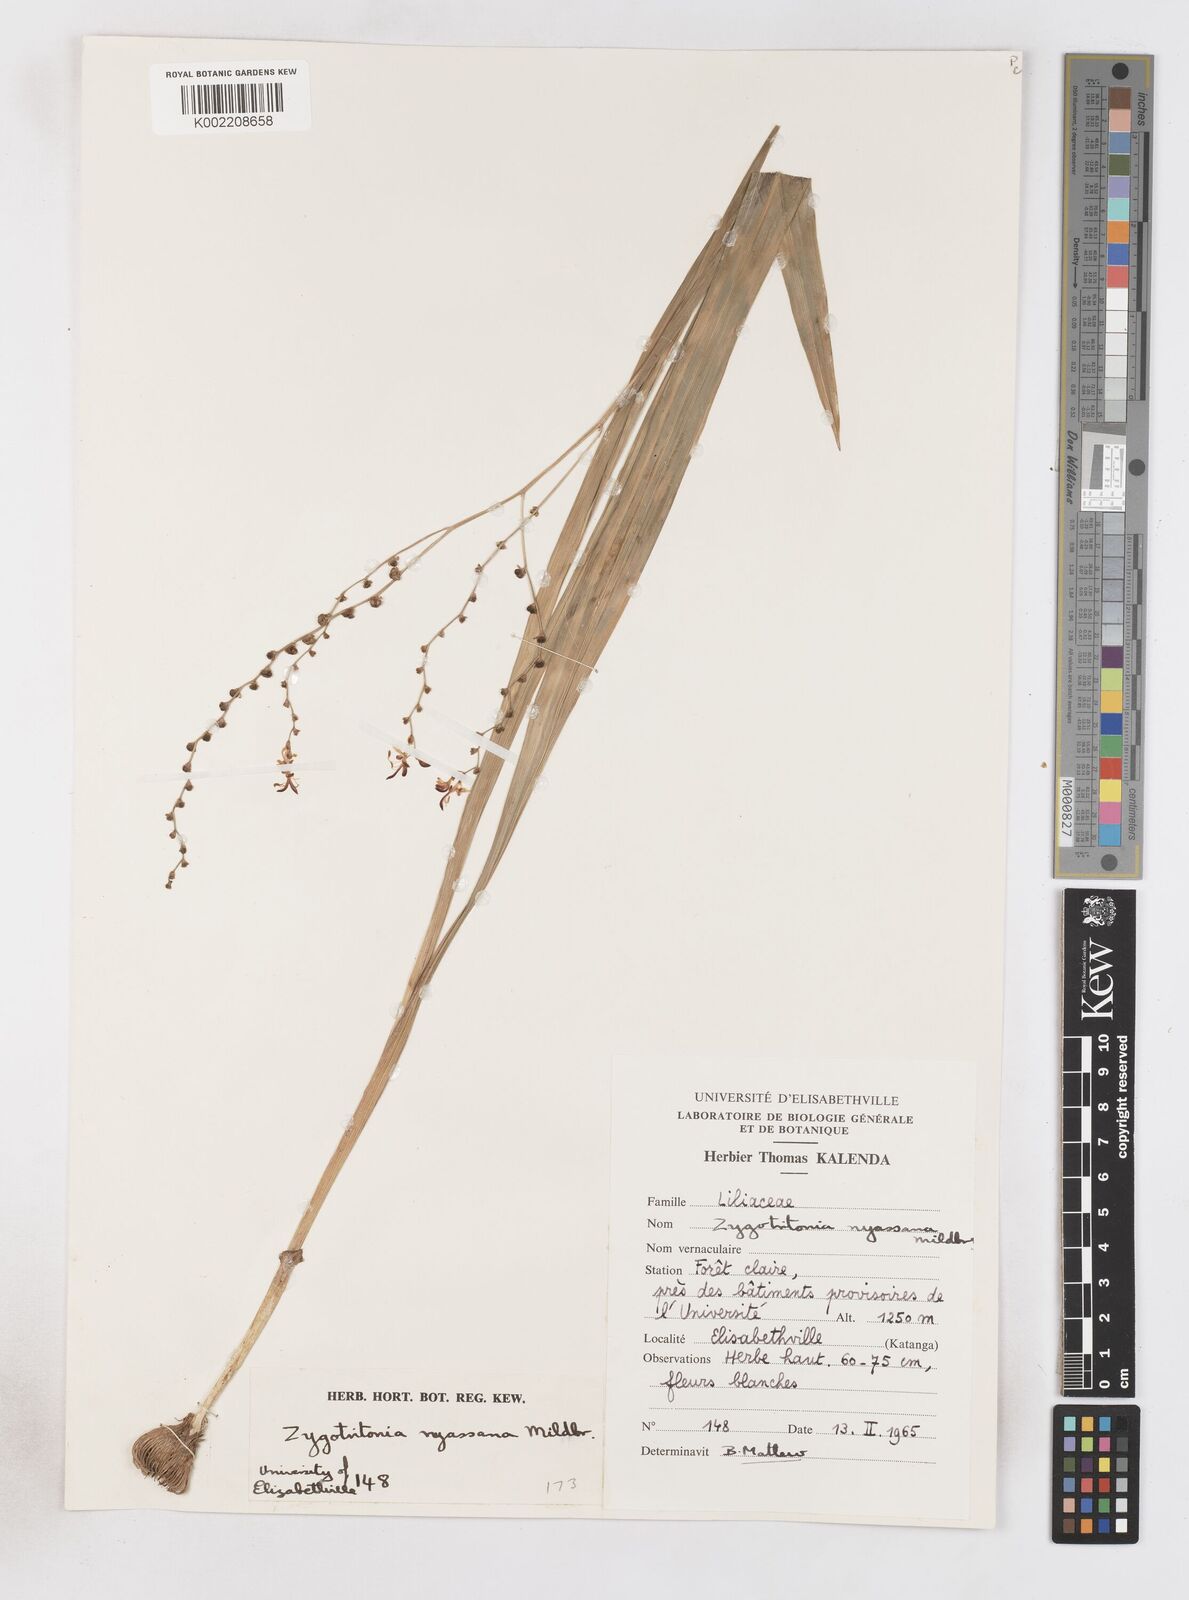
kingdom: Plantae
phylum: Tracheophyta
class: Liliopsida
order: Asparagales
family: Iridaceae
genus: Zygotritonia
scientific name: Zygotritonia nyassana
